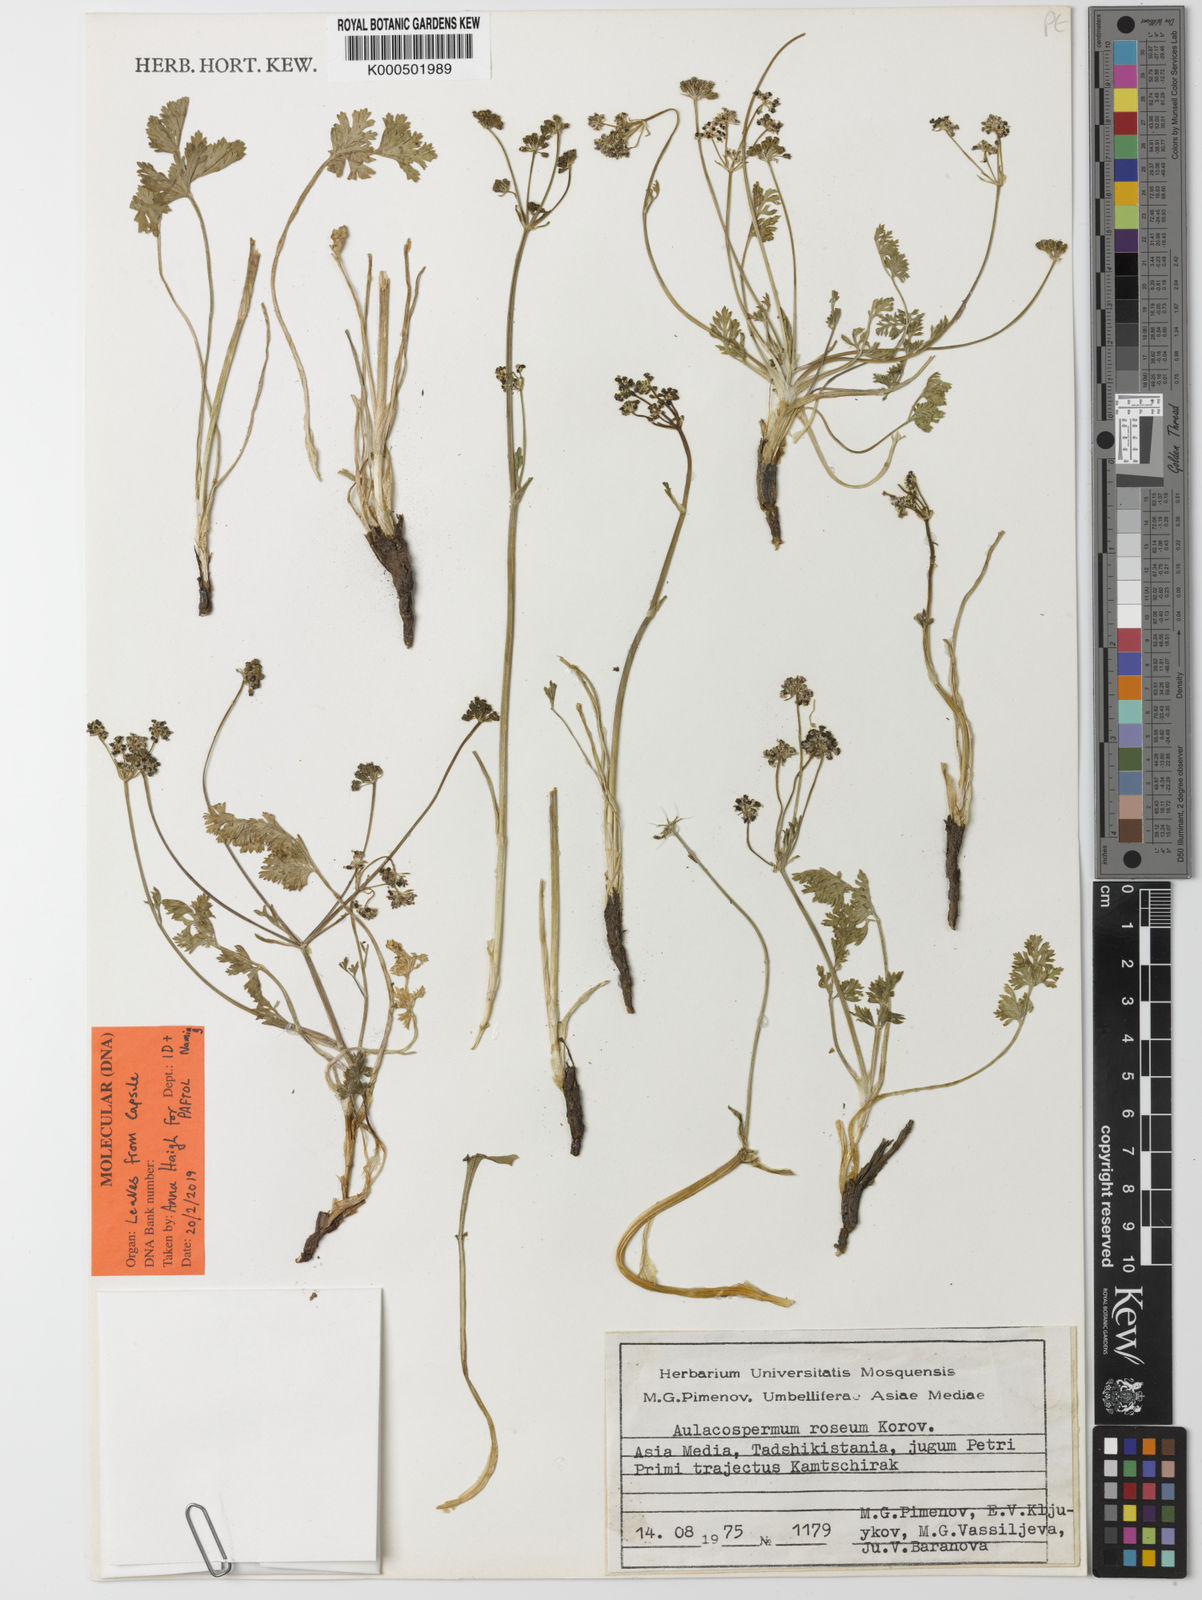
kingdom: Plantae
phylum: Tracheophyta
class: Magnoliopsida
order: Apiales
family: Apiaceae
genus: Aulacospermum
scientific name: Aulacospermum roseum
